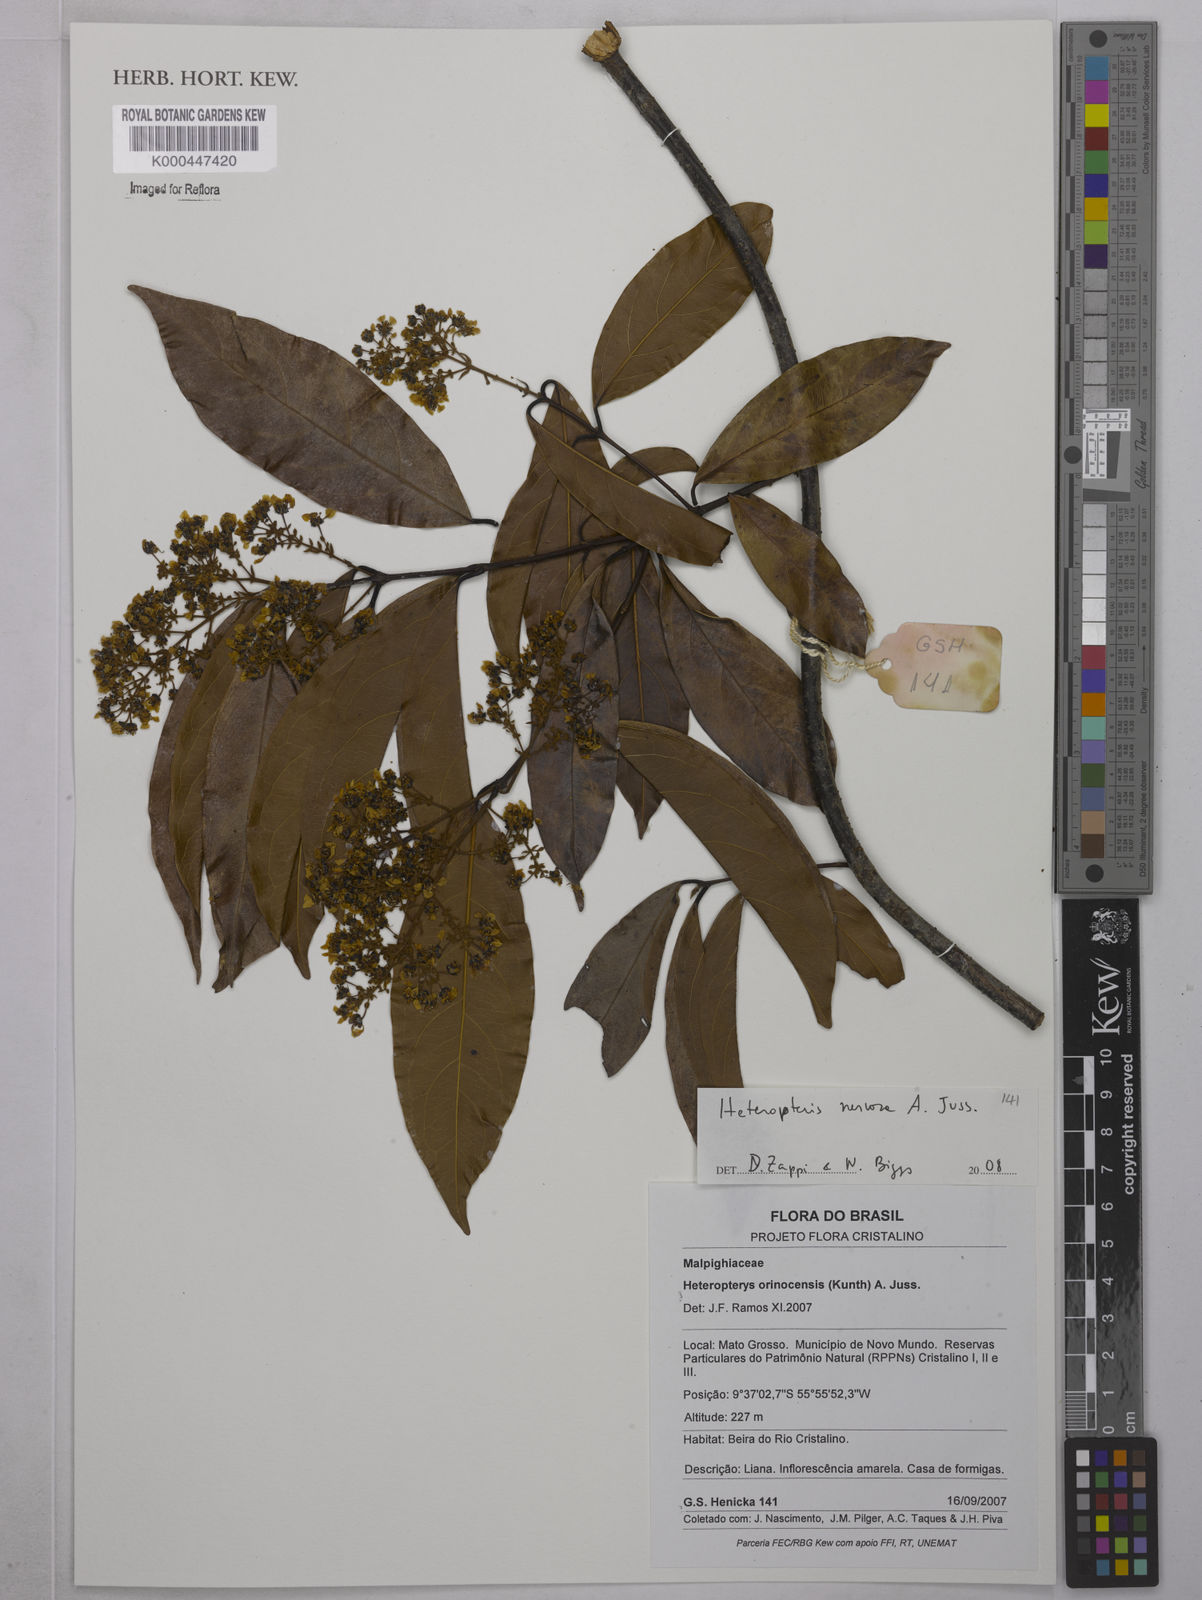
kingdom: Plantae
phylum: Tracheophyta
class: Magnoliopsida
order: Malpighiales
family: Malpighiaceae
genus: Heteropterys
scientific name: Heteropterys nervosa
